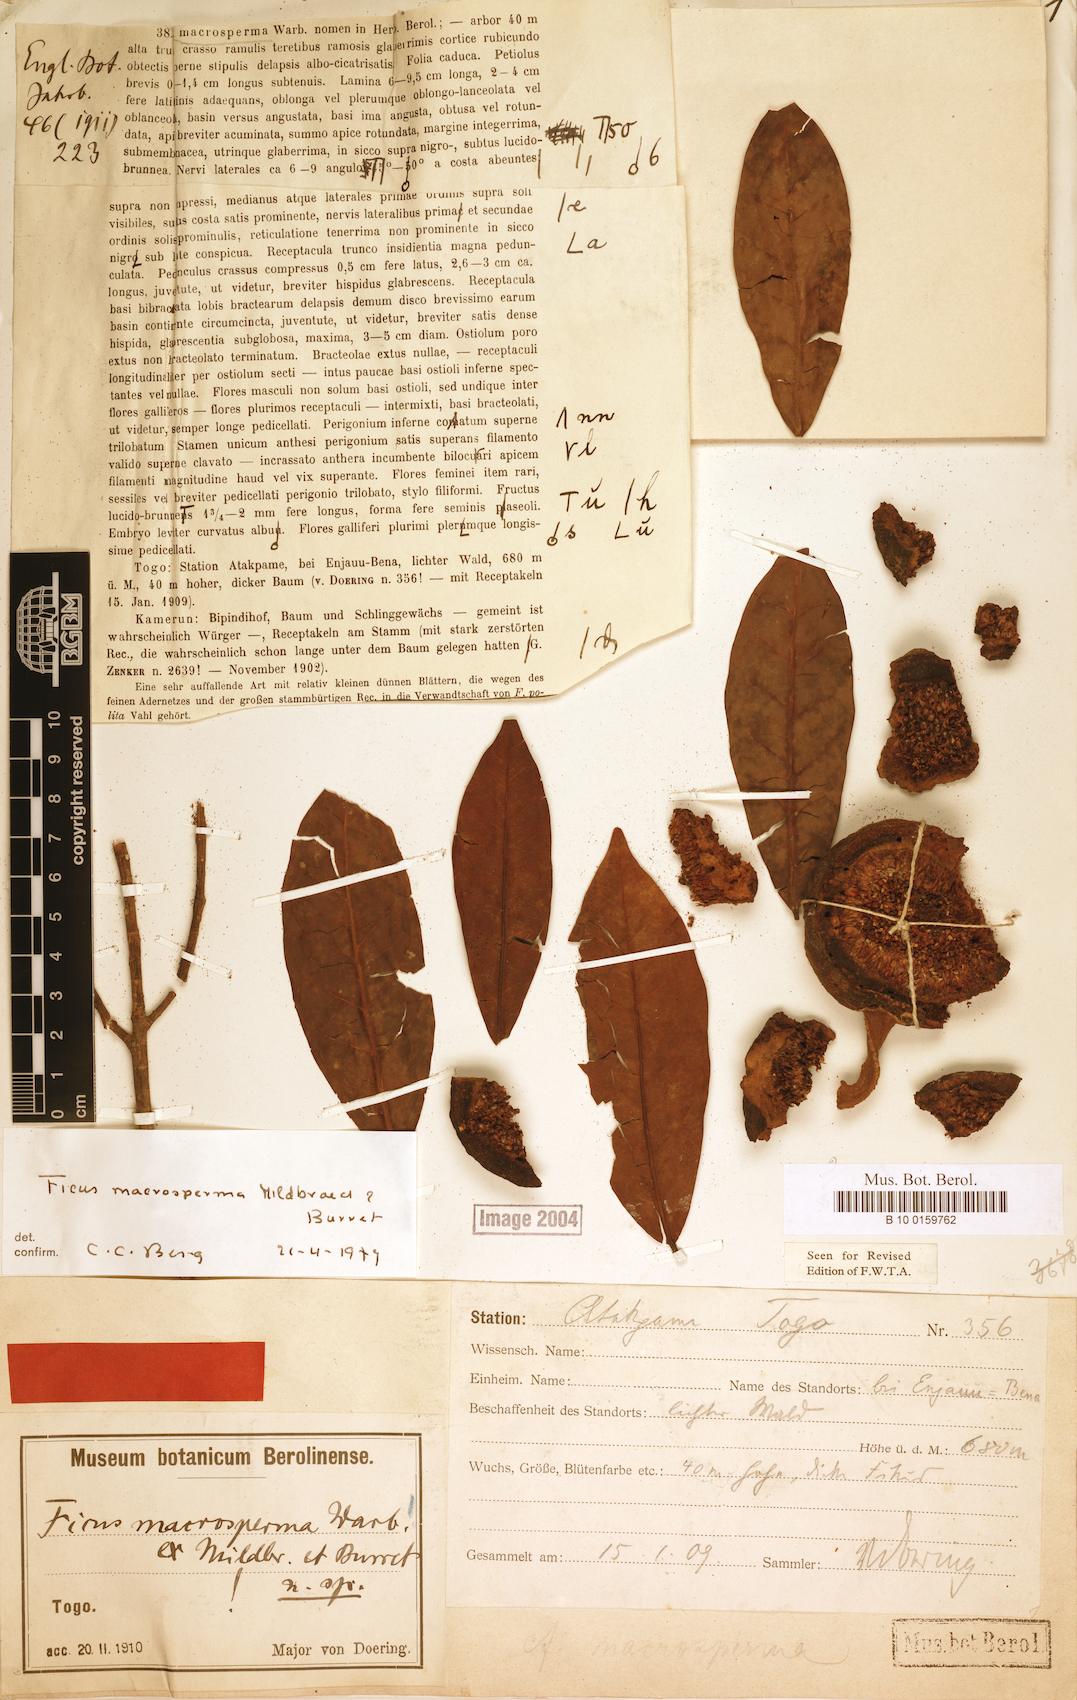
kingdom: Plantae
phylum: Tracheophyta
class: Magnoliopsida
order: Rosales
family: Moraceae
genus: Ficus
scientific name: Ficus sansibarica
